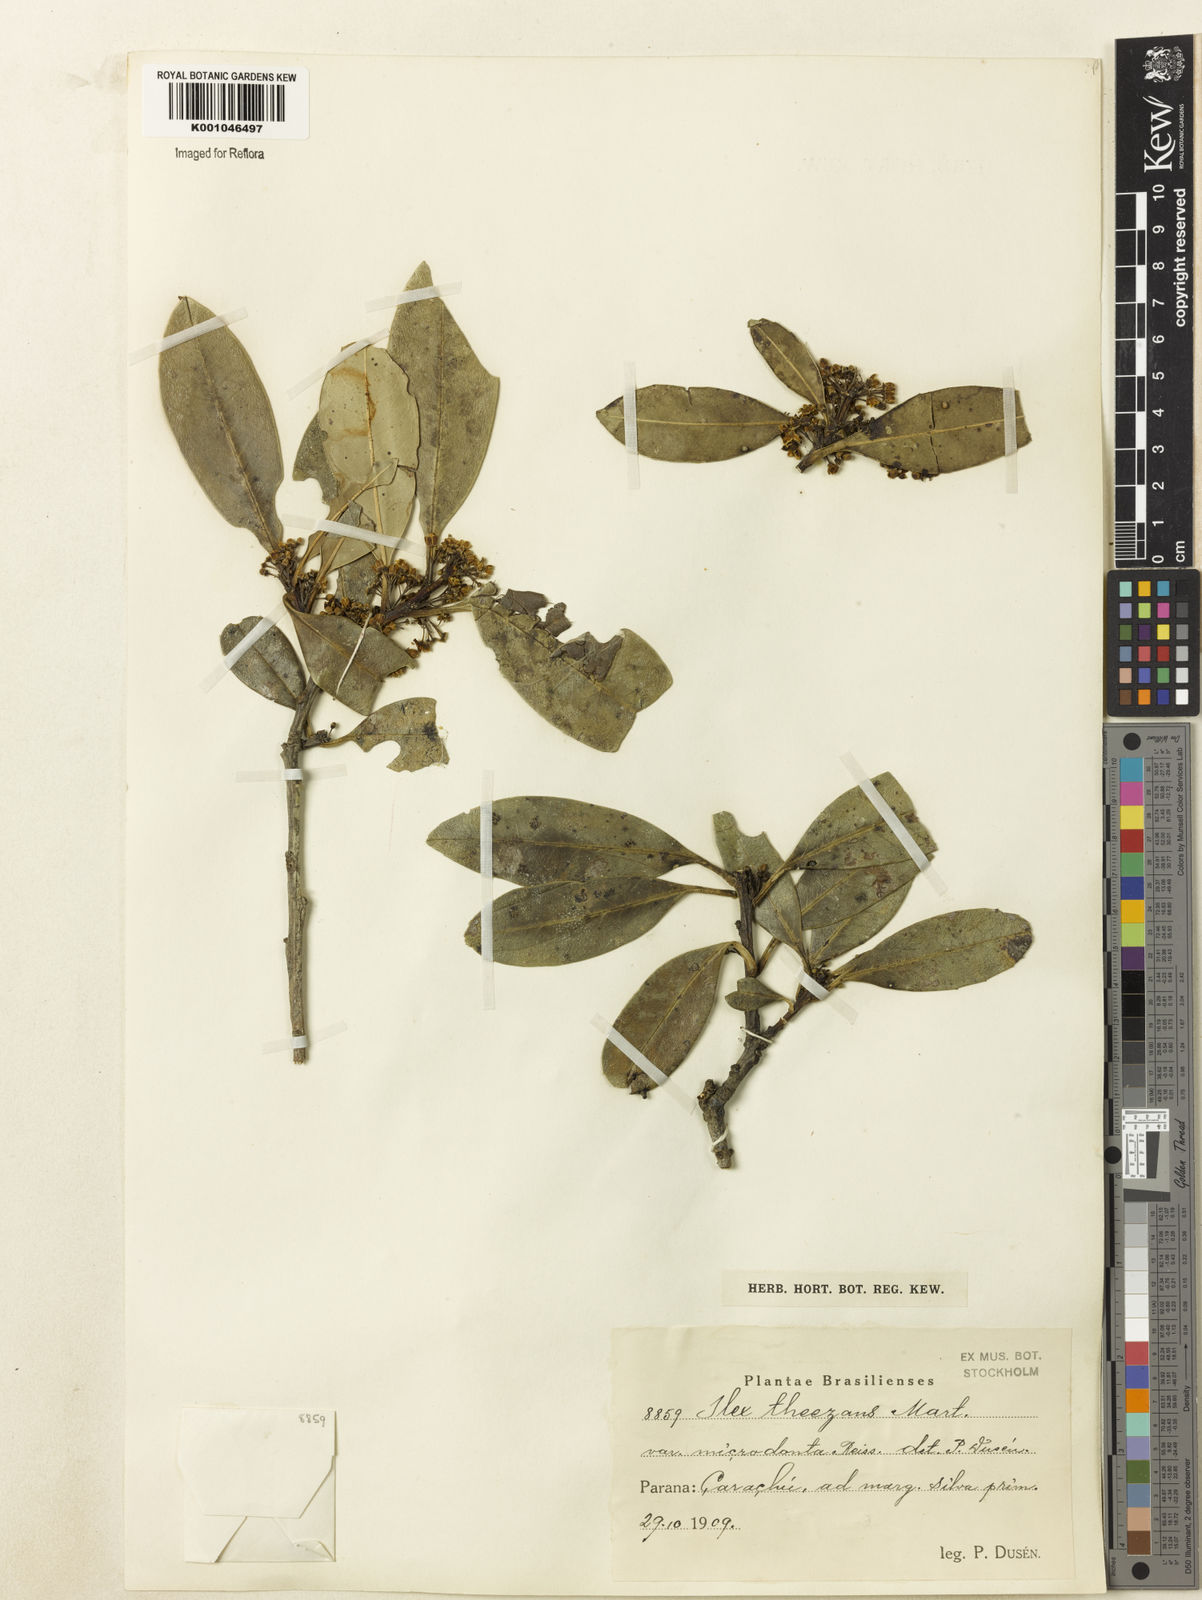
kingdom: Plantae
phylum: Tracheophyta
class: Magnoliopsida
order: Aquifoliales
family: Aquifoliaceae
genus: Ilex
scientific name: Ilex paraguariensis
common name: Paraguay tea
